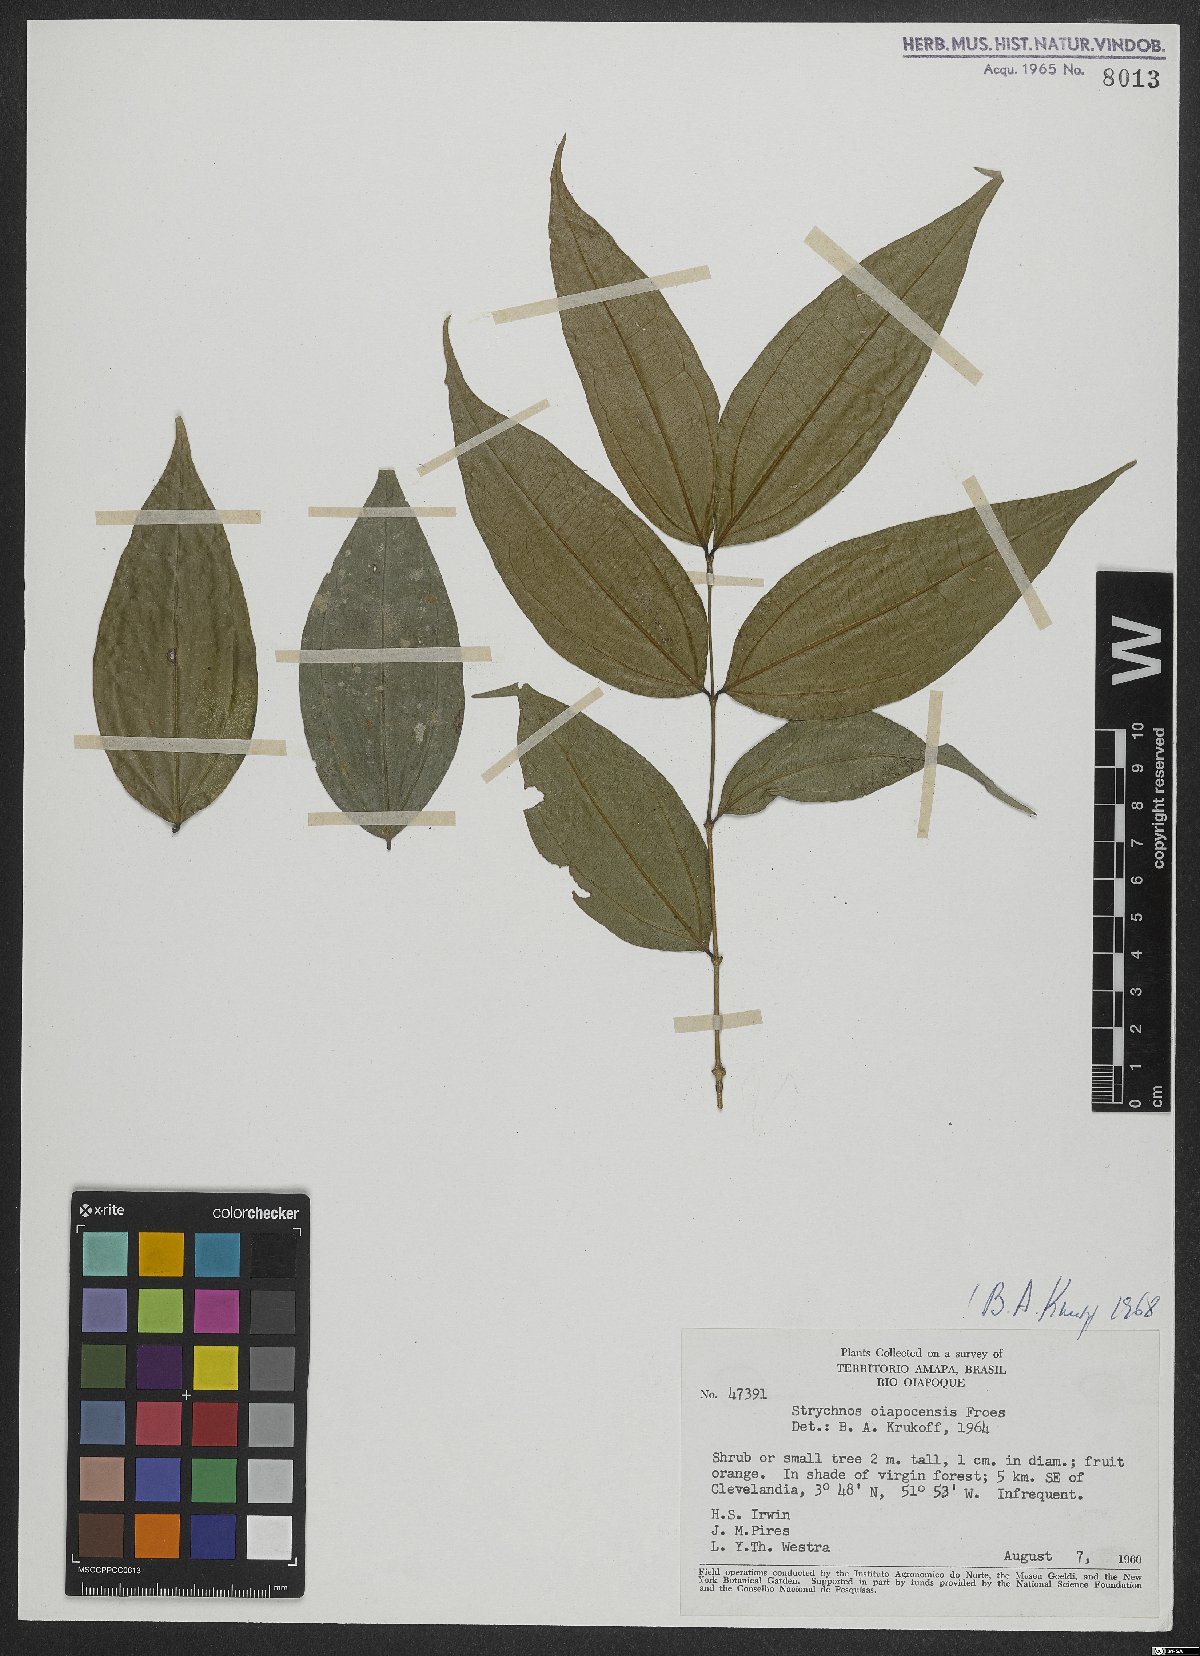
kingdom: Plantae
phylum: Tracheophyta
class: Magnoliopsida
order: Gentianales
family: Loganiaceae
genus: Strychnos
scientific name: Strychnos oiapocensis
